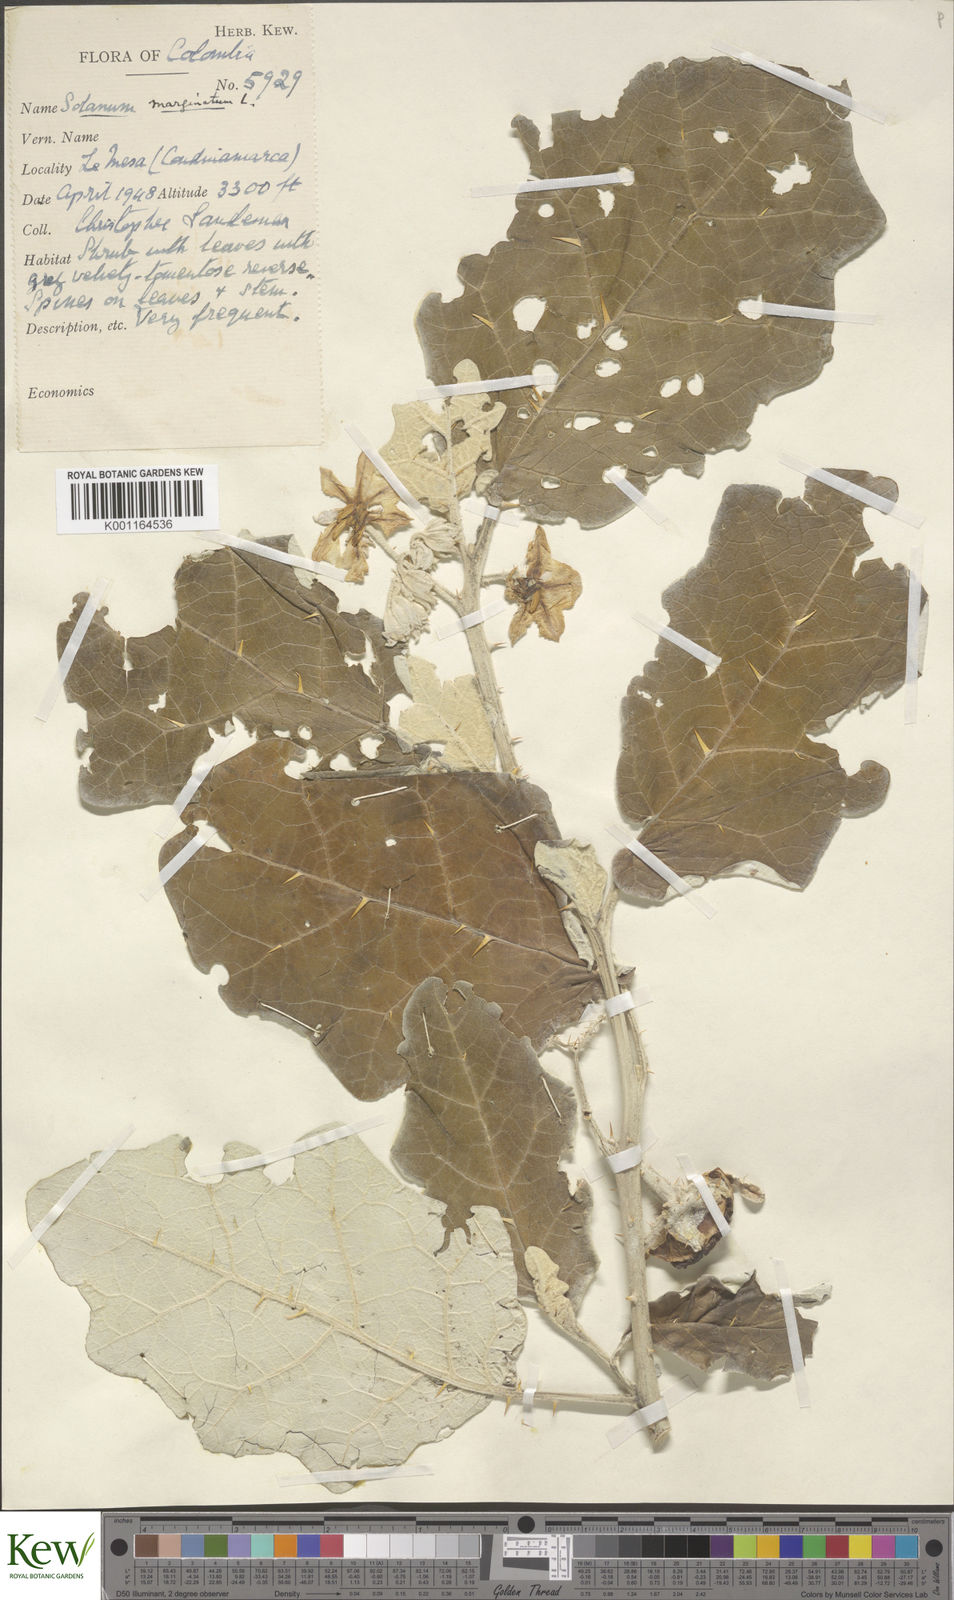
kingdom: Plantae
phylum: Tracheophyta
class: Magnoliopsida
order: Solanales
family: Solanaceae
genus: Solanum
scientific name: Solanum marginatum
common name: Purple african nightshade
